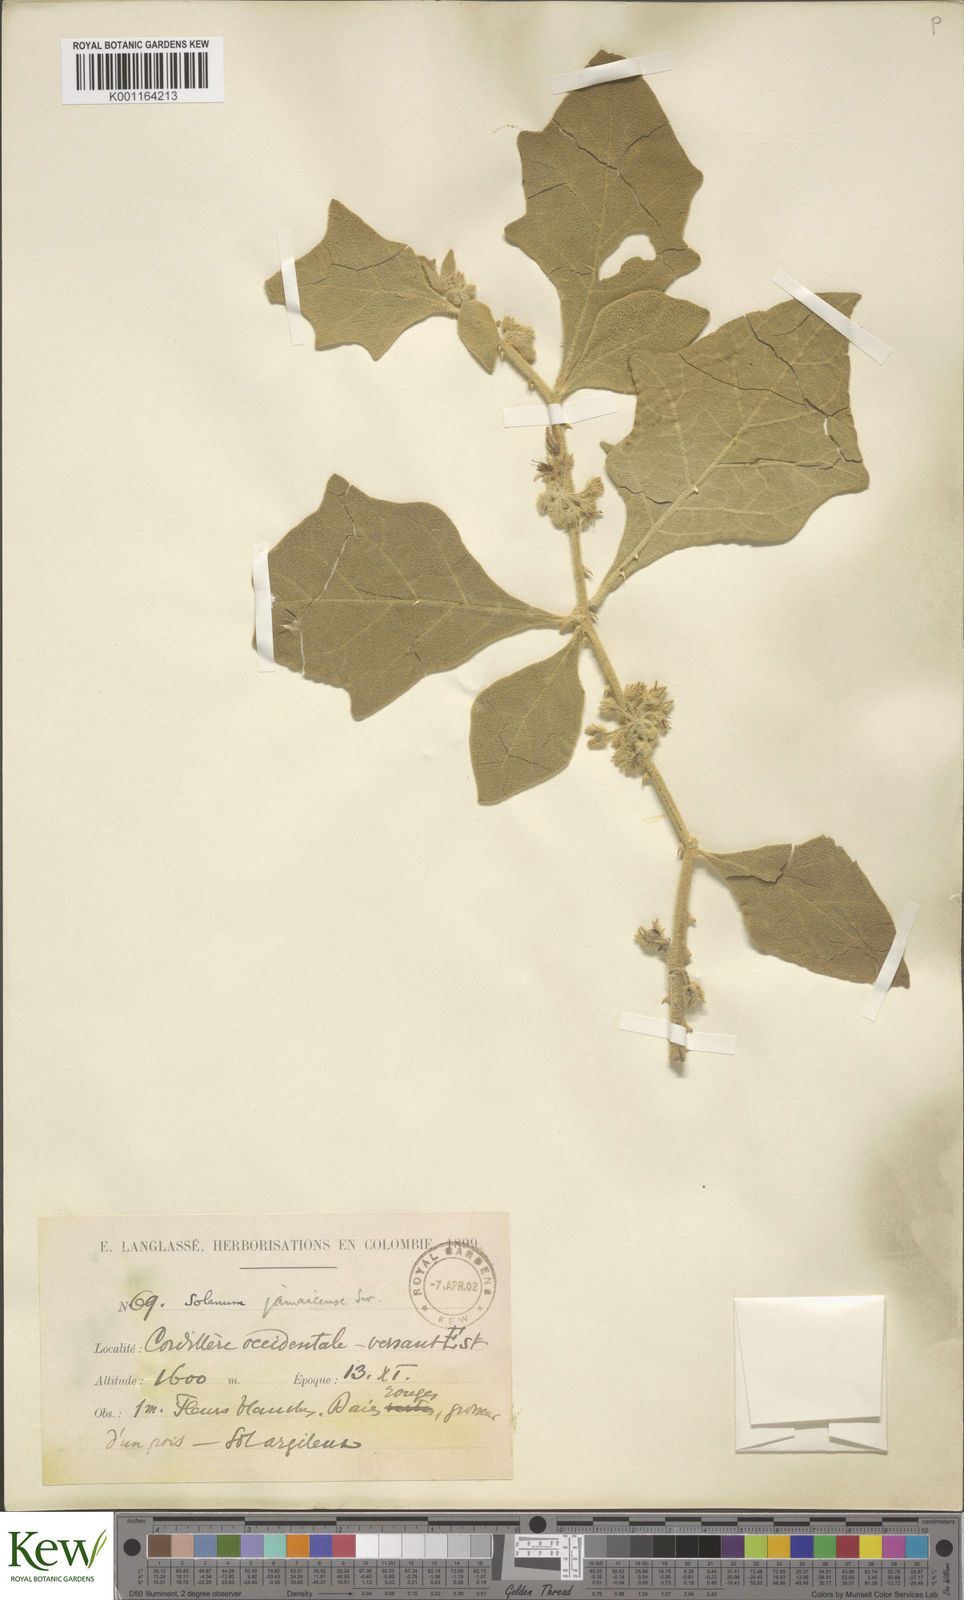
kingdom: Plantae
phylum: Tracheophyta
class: Magnoliopsida
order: Solanales
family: Solanaceae
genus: Solanum
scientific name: Solanum jamaicense
